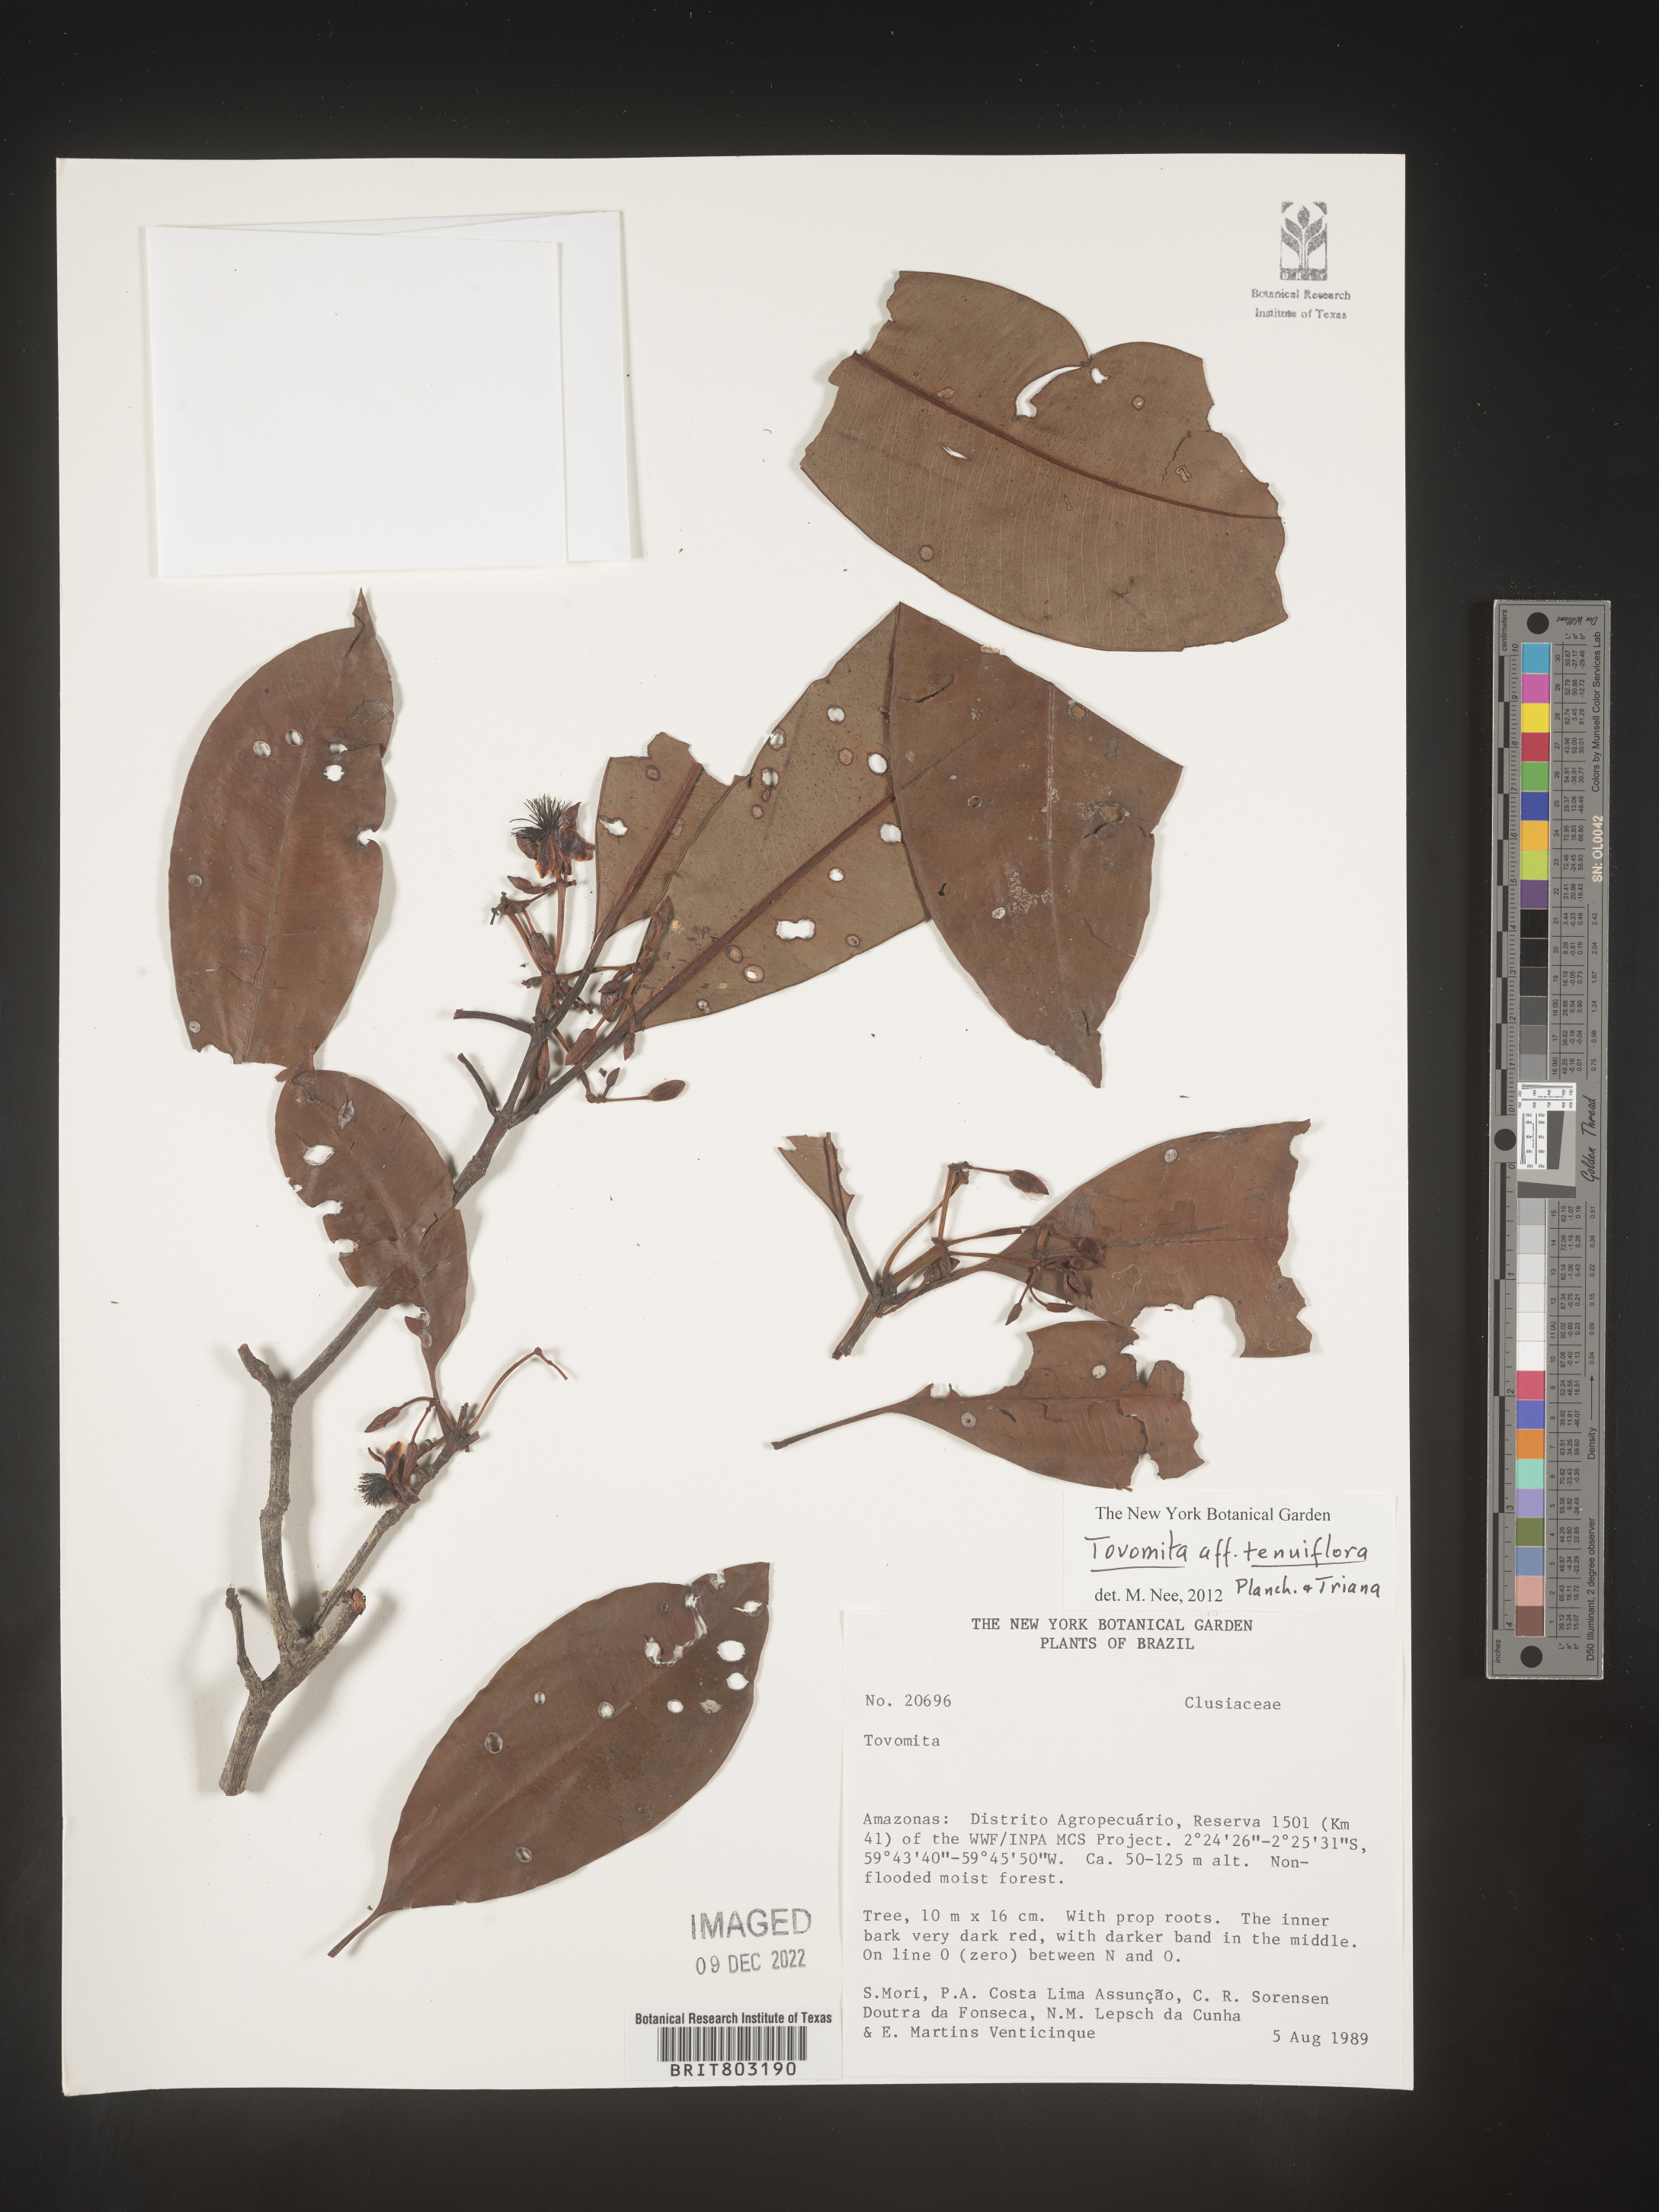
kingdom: Plantae
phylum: Tracheophyta
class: Magnoliopsida
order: Malpighiales
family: Clusiaceae
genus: Tovomita
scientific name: Tovomita
